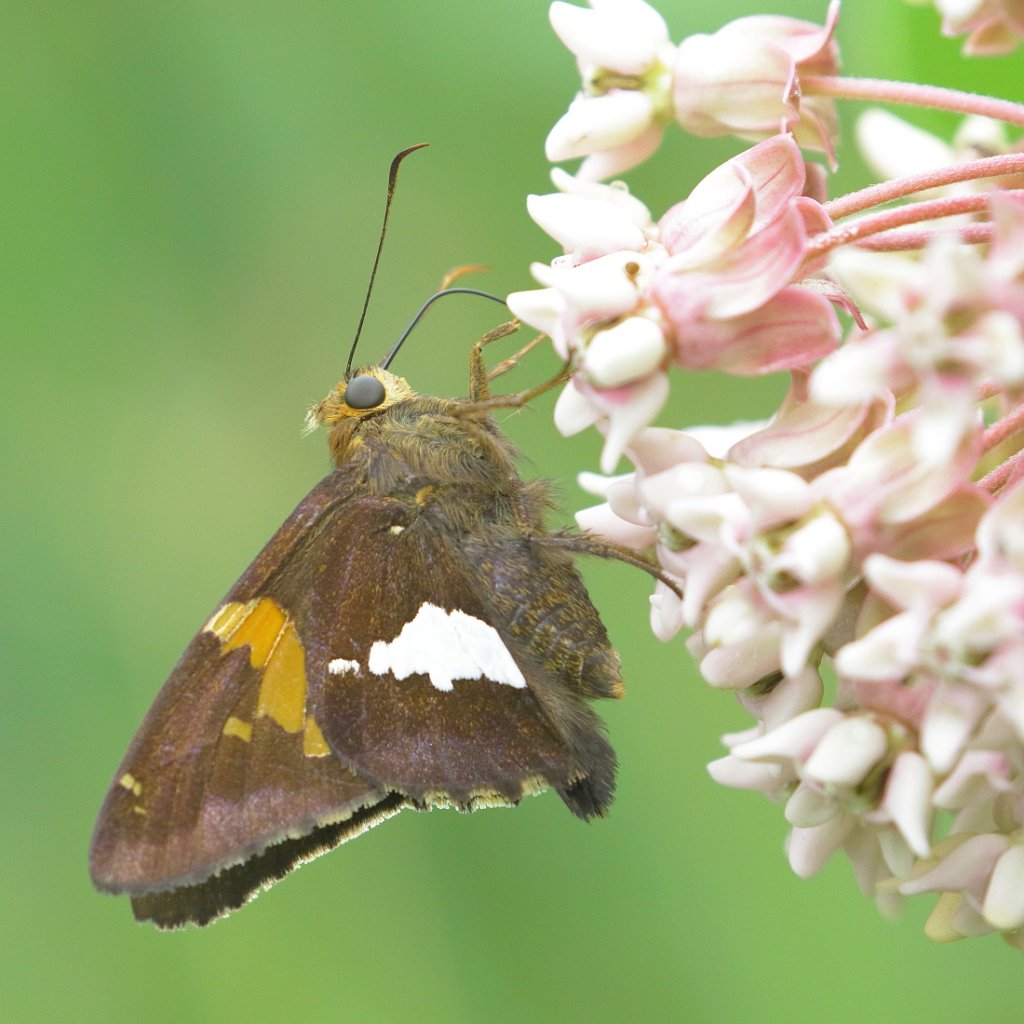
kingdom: Animalia
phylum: Arthropoda
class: Insecta
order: Lepidoptera
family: Hesperiidae
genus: Epargyreus
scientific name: Epargyreus clarus
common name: Silver-spotted Skipper
